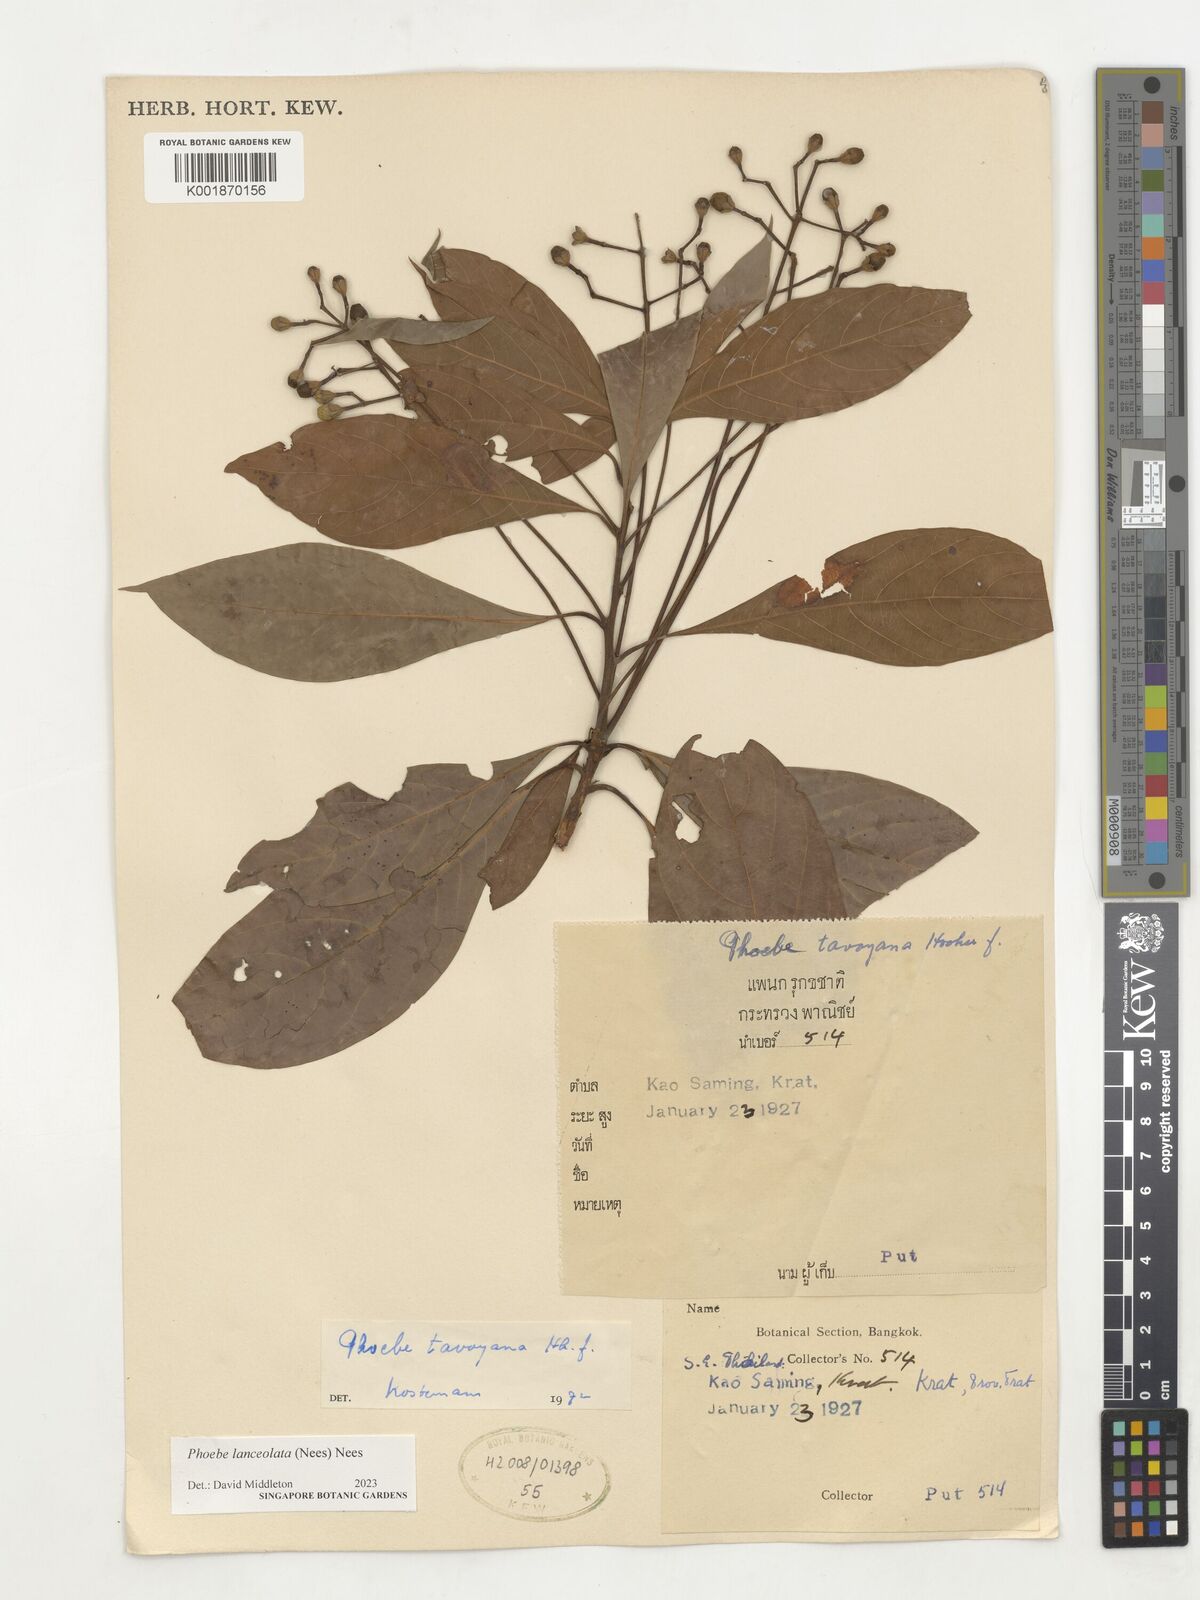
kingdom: Plantae
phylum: Tracheophyta
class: Magnoliopsida
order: Laurales
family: Lauraceae
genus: Phoebe
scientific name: Phoebe lanceolata
